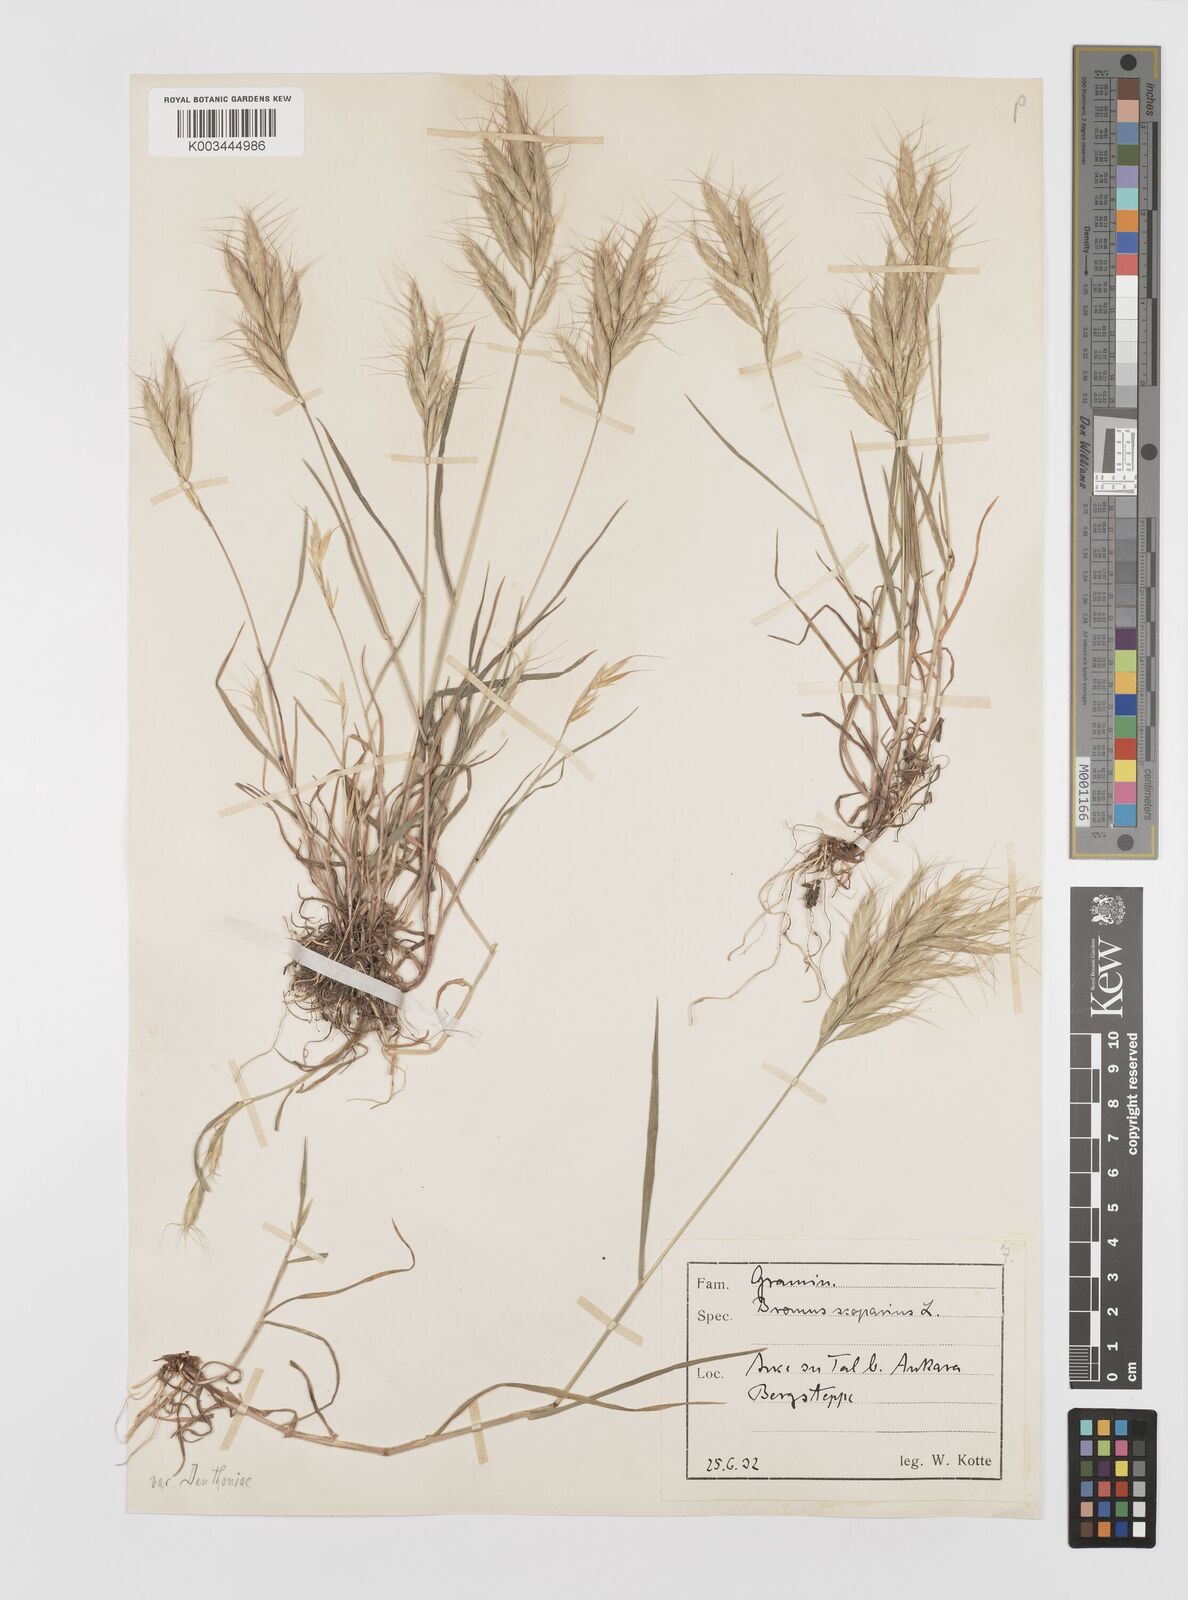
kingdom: Plantae
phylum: Tracheophyta
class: Liliopsida
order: Poales
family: Poaceae
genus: Bromus
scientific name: Bromus danthoniae
